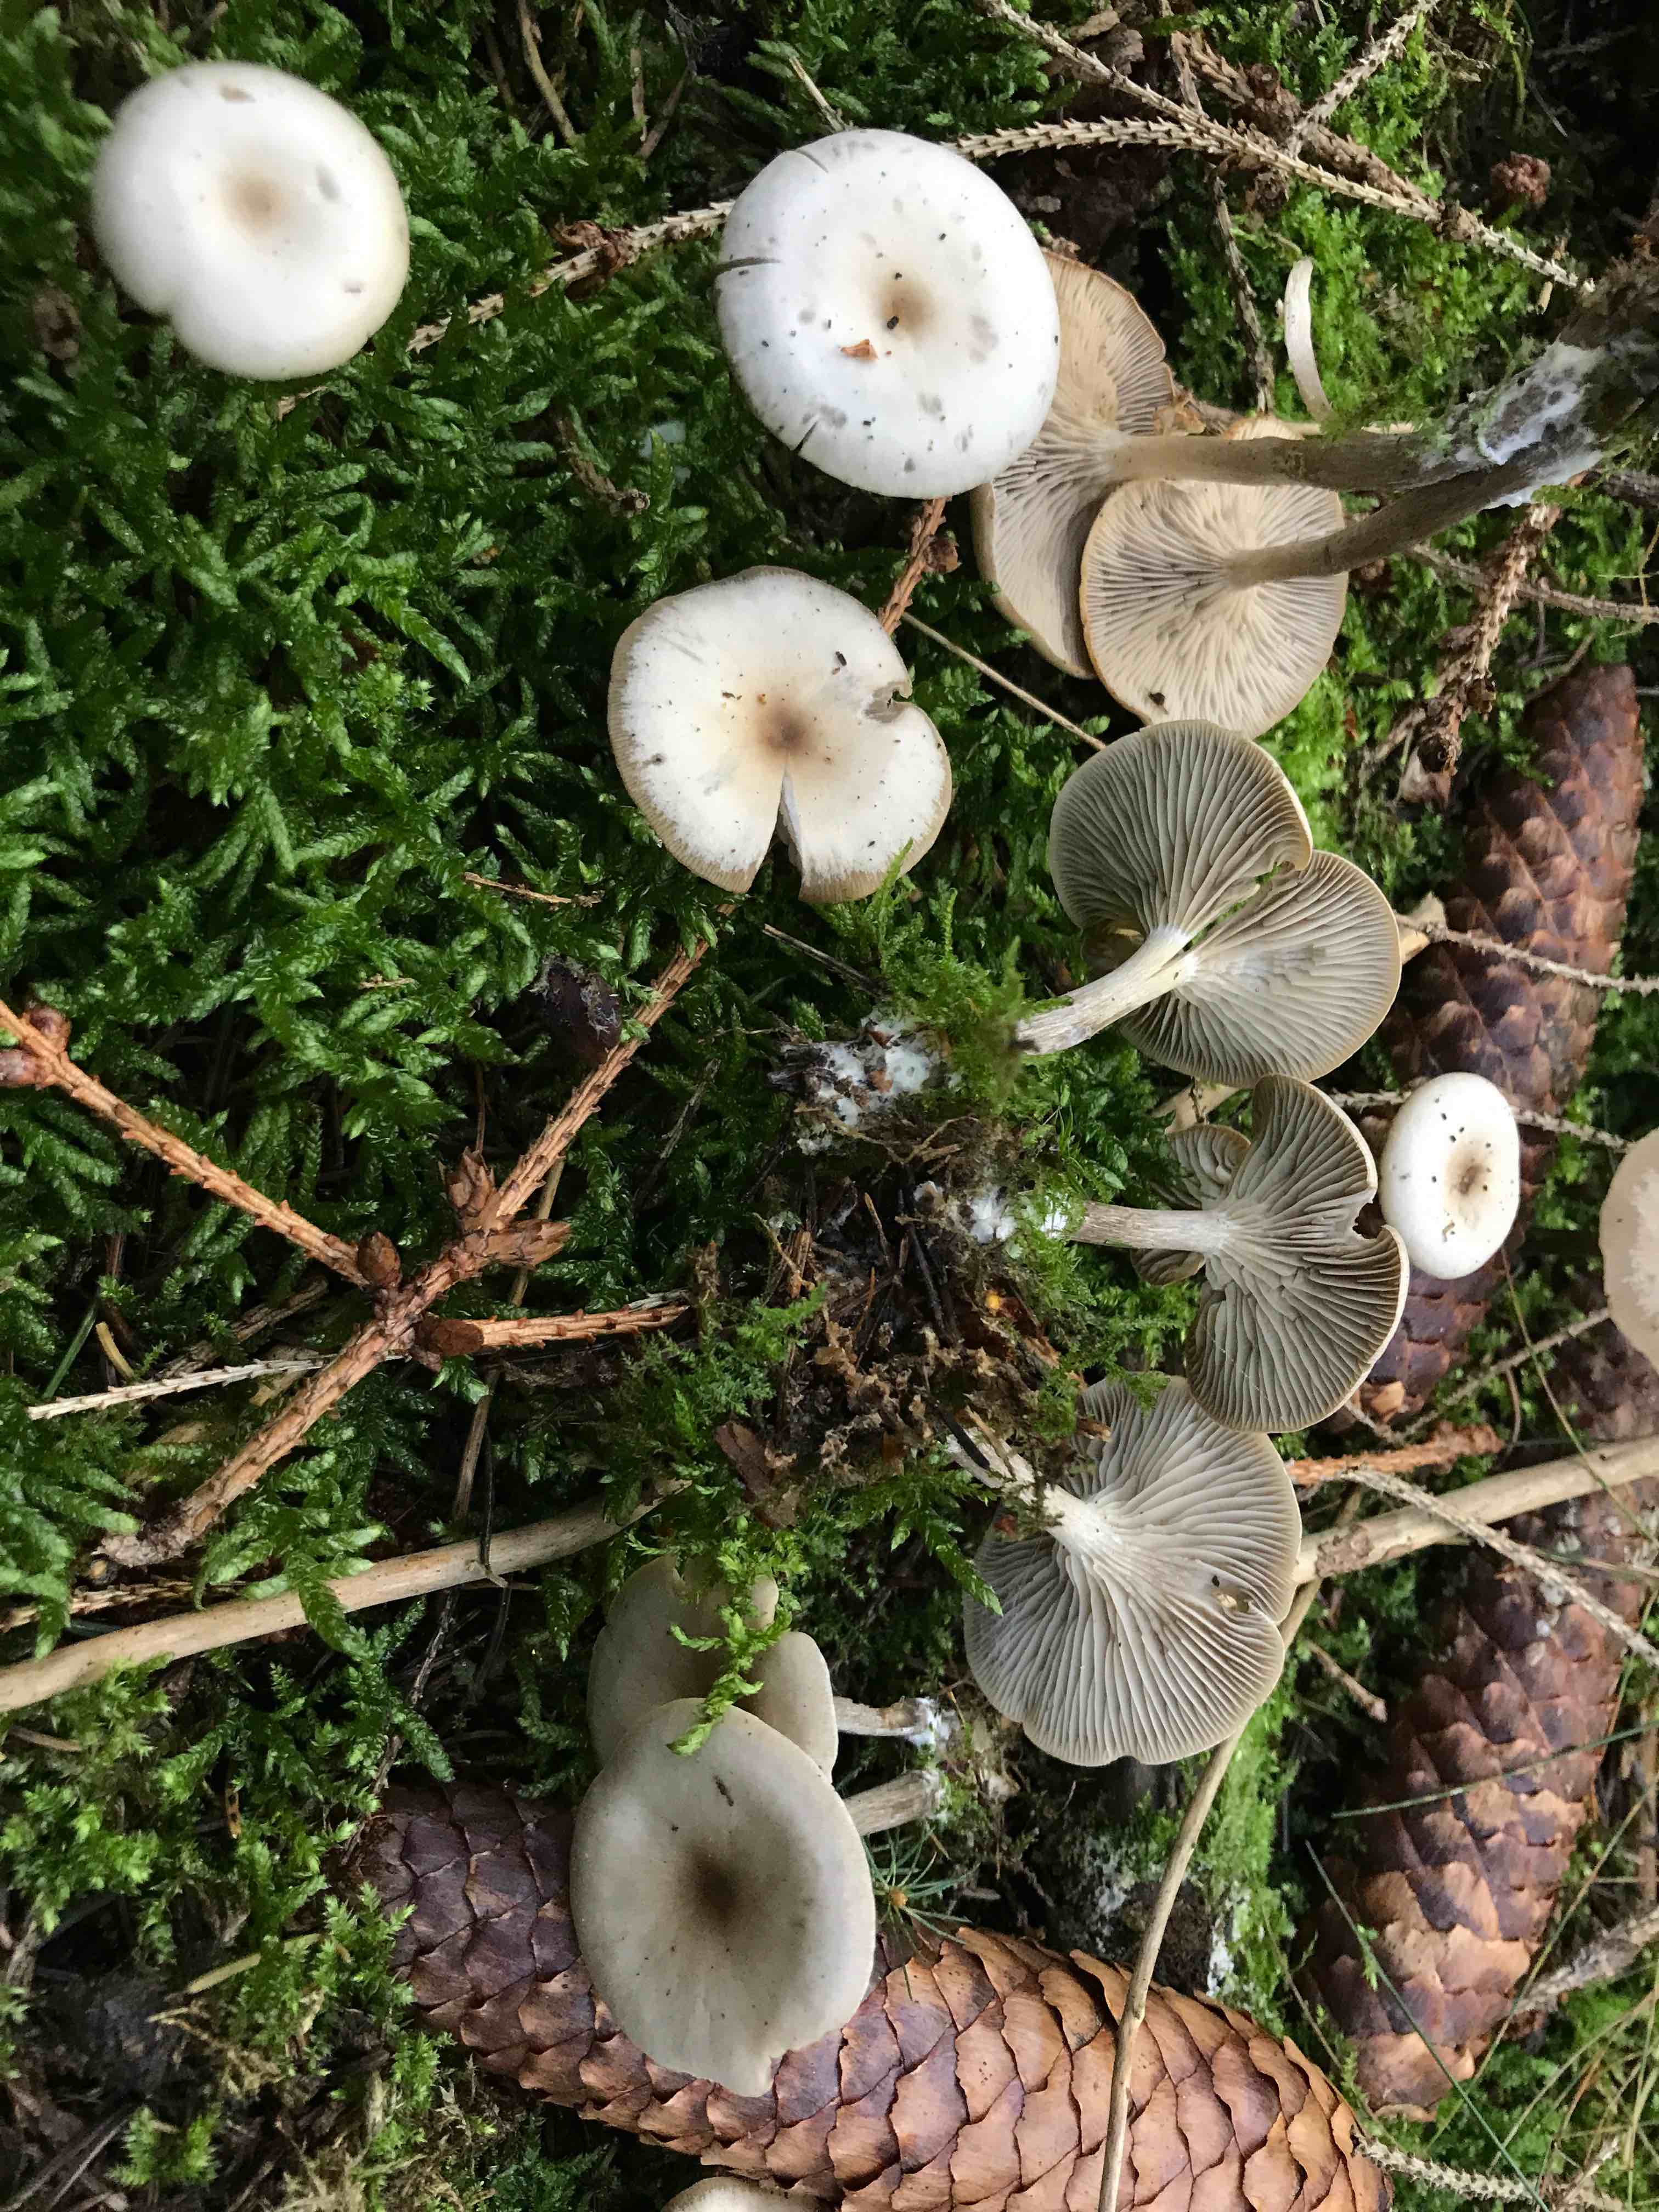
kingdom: Fungi
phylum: Basidiomycota
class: Agaricomycetes
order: Agaricales
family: Tricholomataceae
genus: Clitocybe
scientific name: Clitocybe metachroa
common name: grå tragthat
